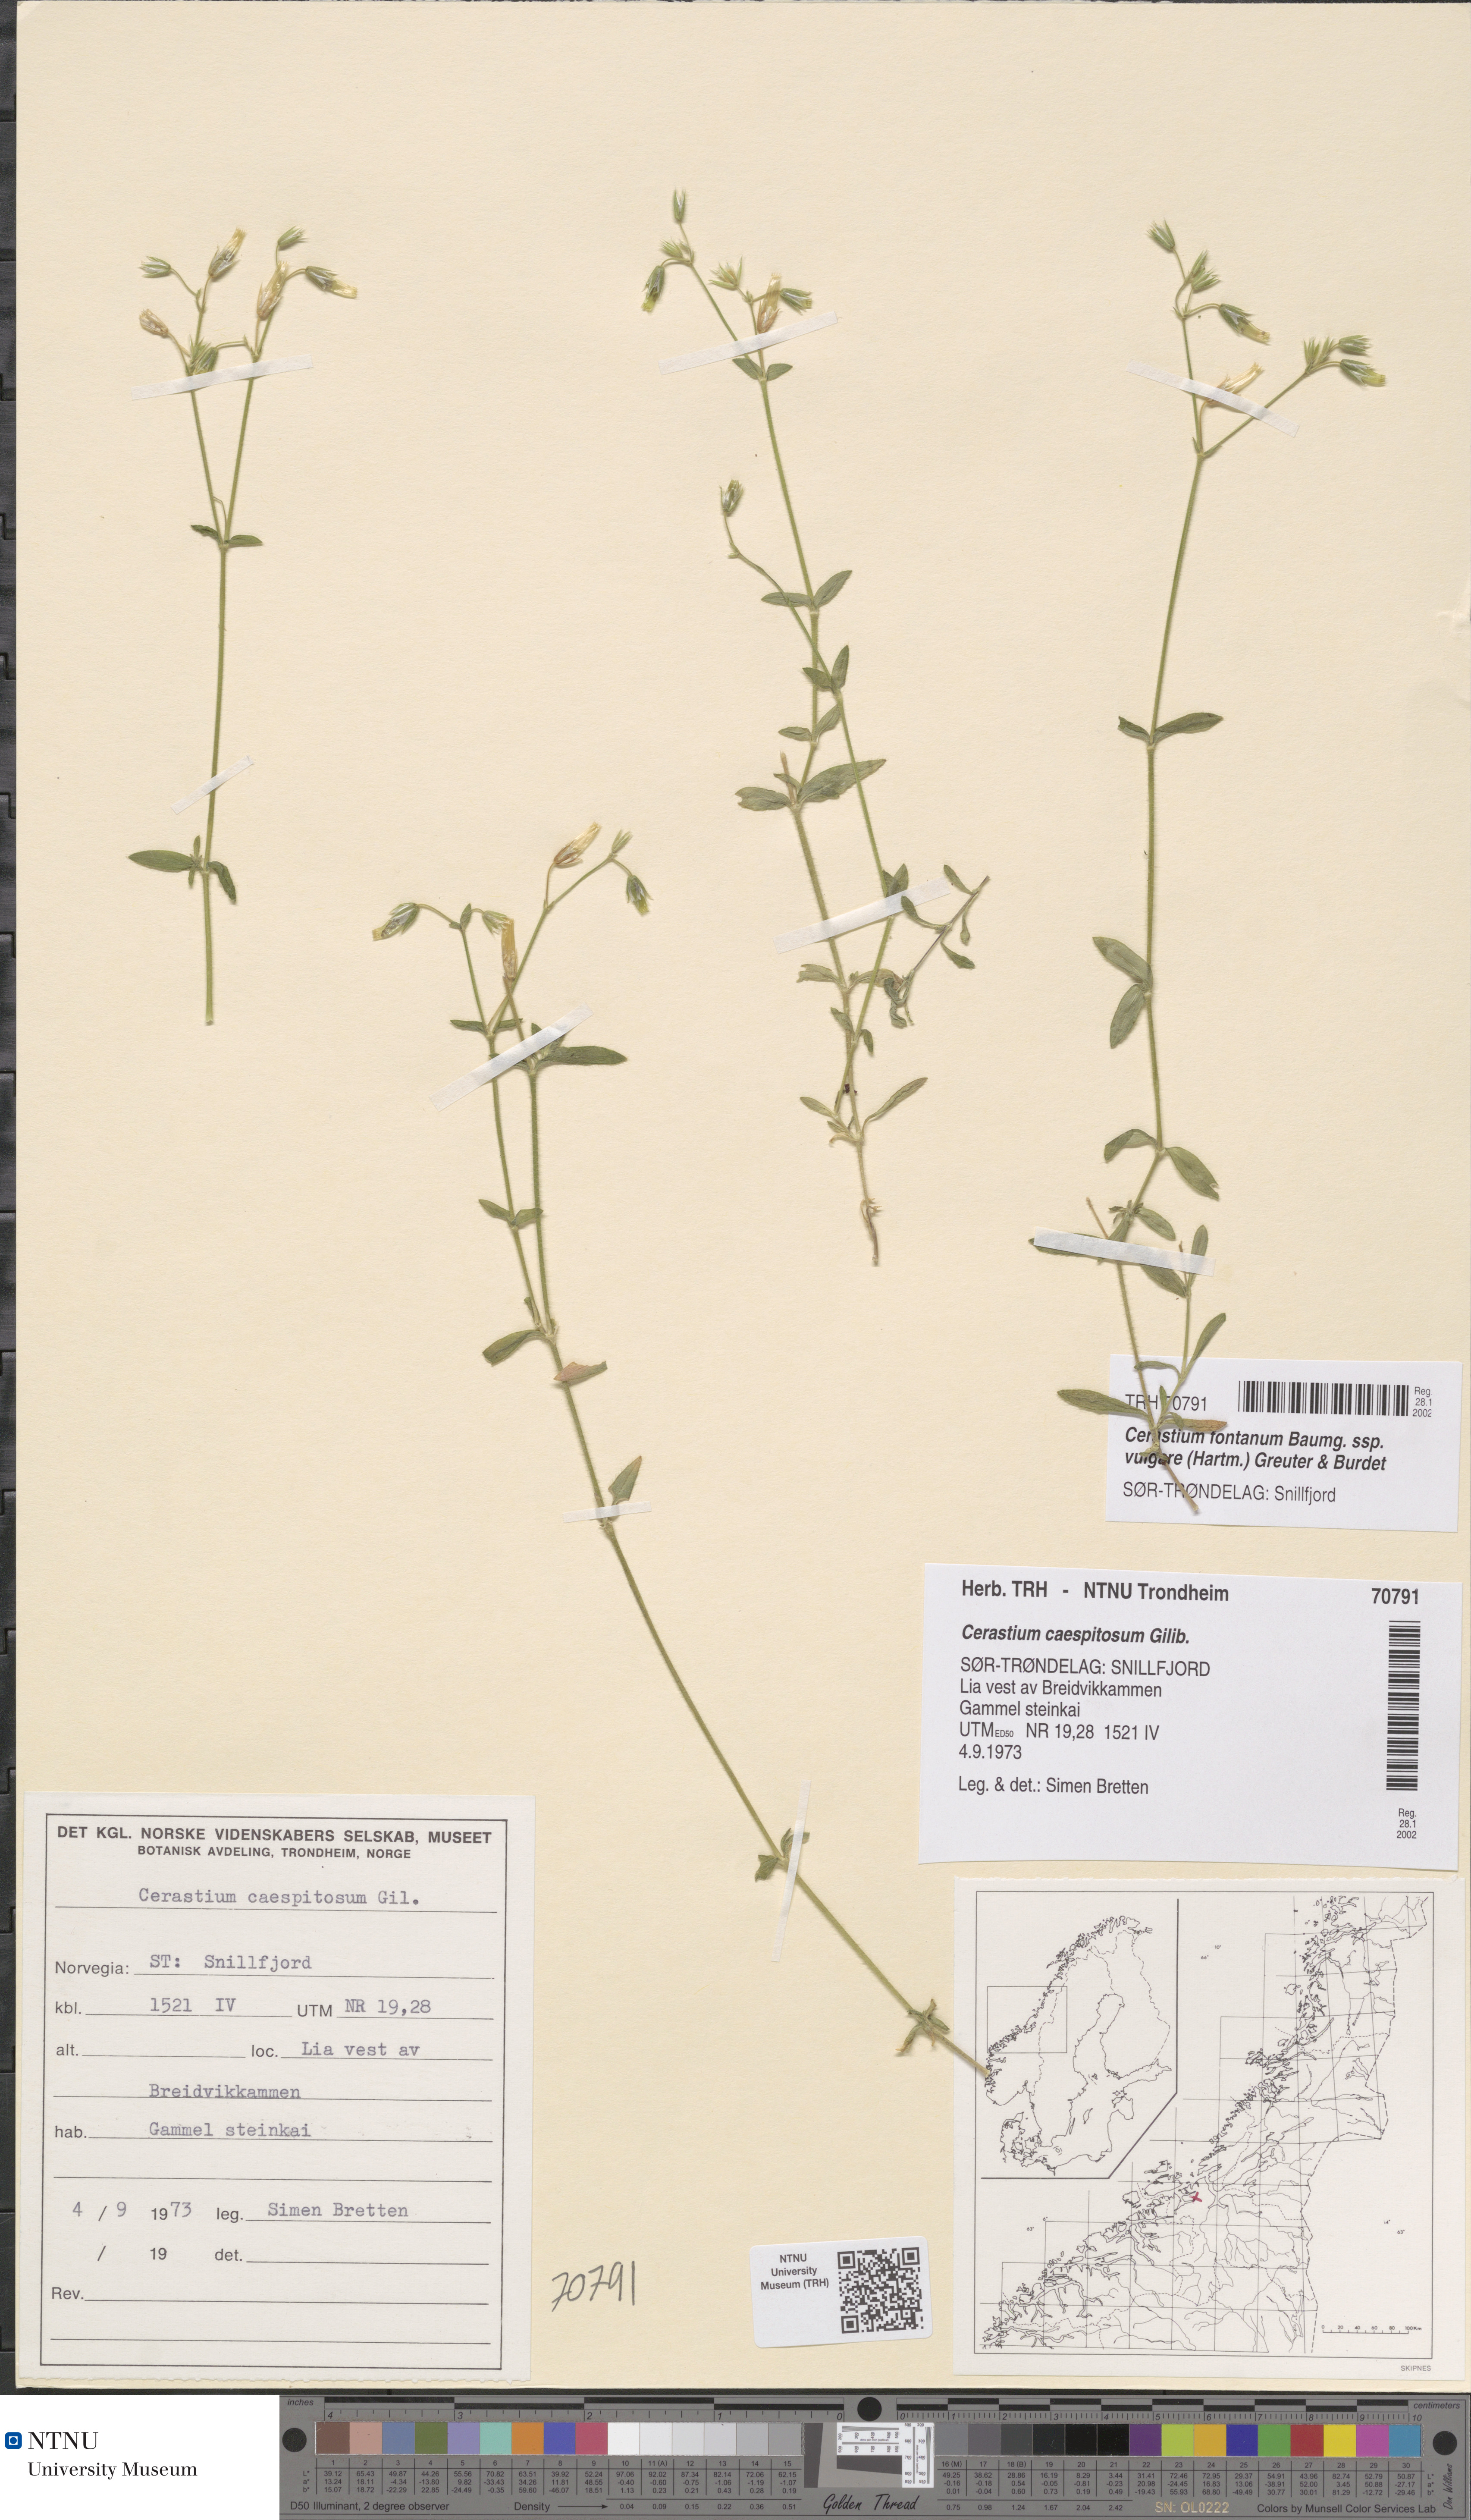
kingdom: Plantae
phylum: Tracheophyta
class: Magnoliopsida
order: Caryophyllales
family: Caryophyllaceae
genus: Cerastium
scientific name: Cerastium holosteoides
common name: Big chickweed
